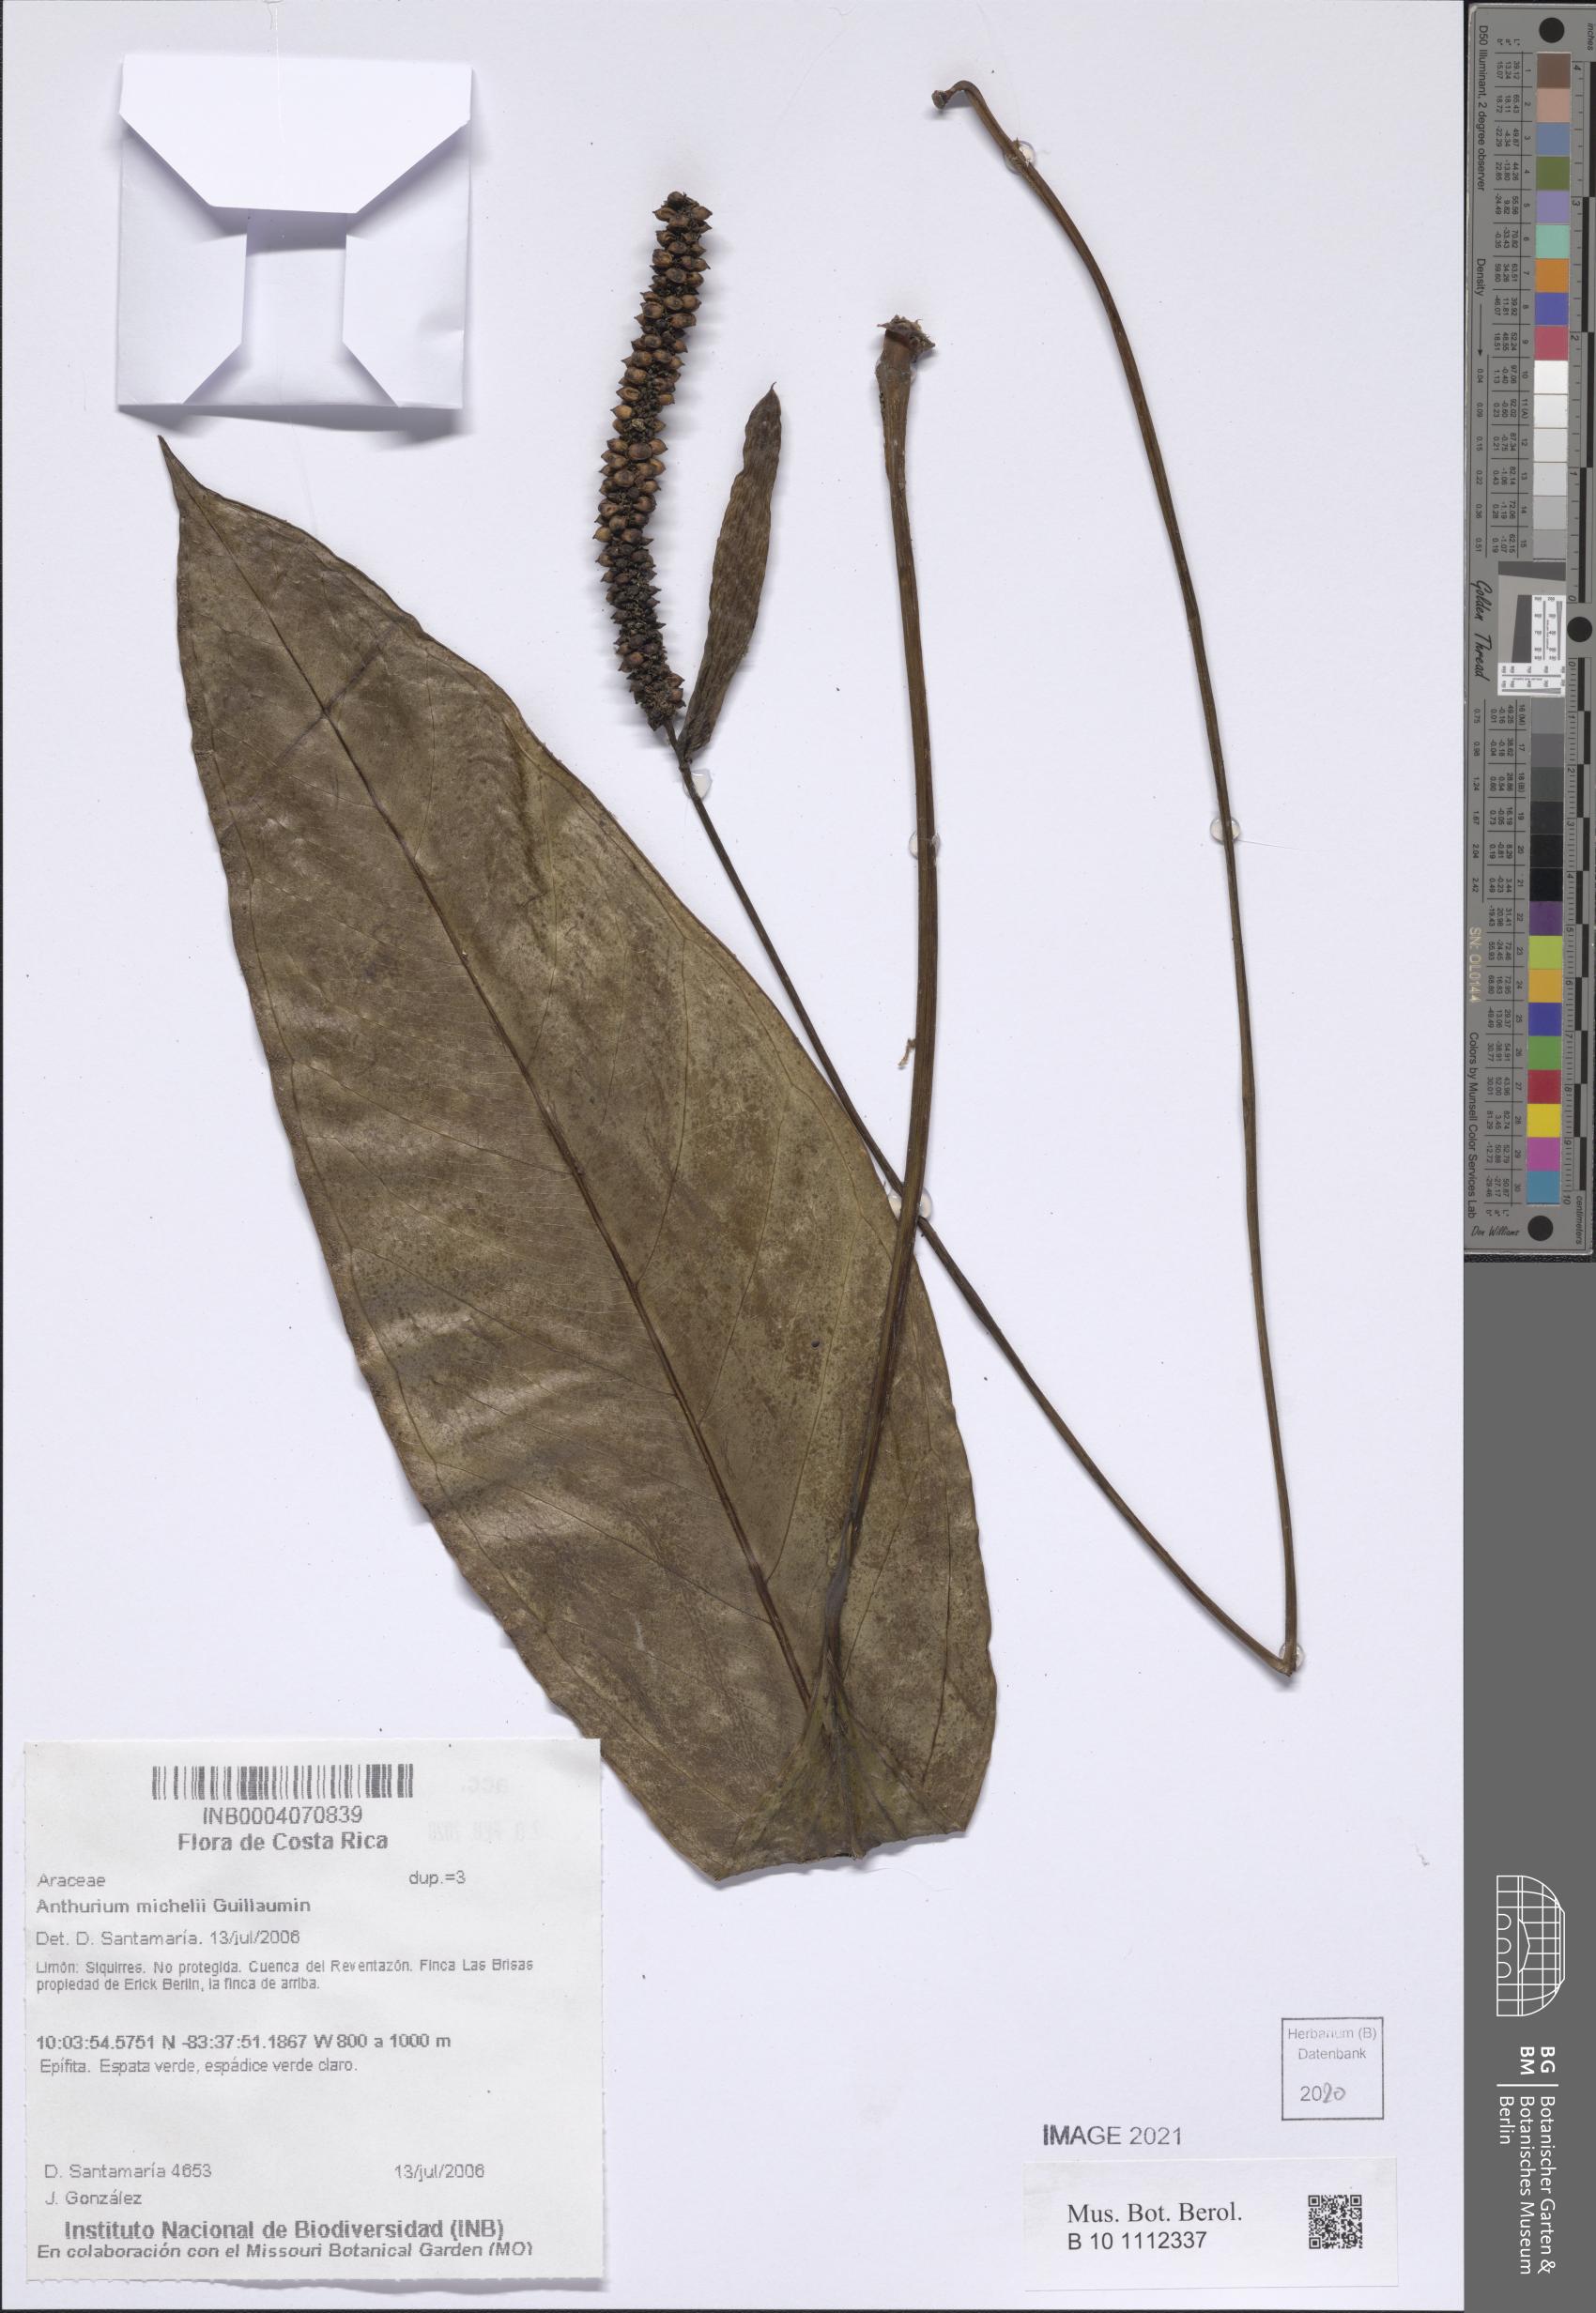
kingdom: Plantae
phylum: Tracheophyta
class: Liliopsida
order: Alismatales
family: Araceae
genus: Anthurium
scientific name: Anthurium michelii
